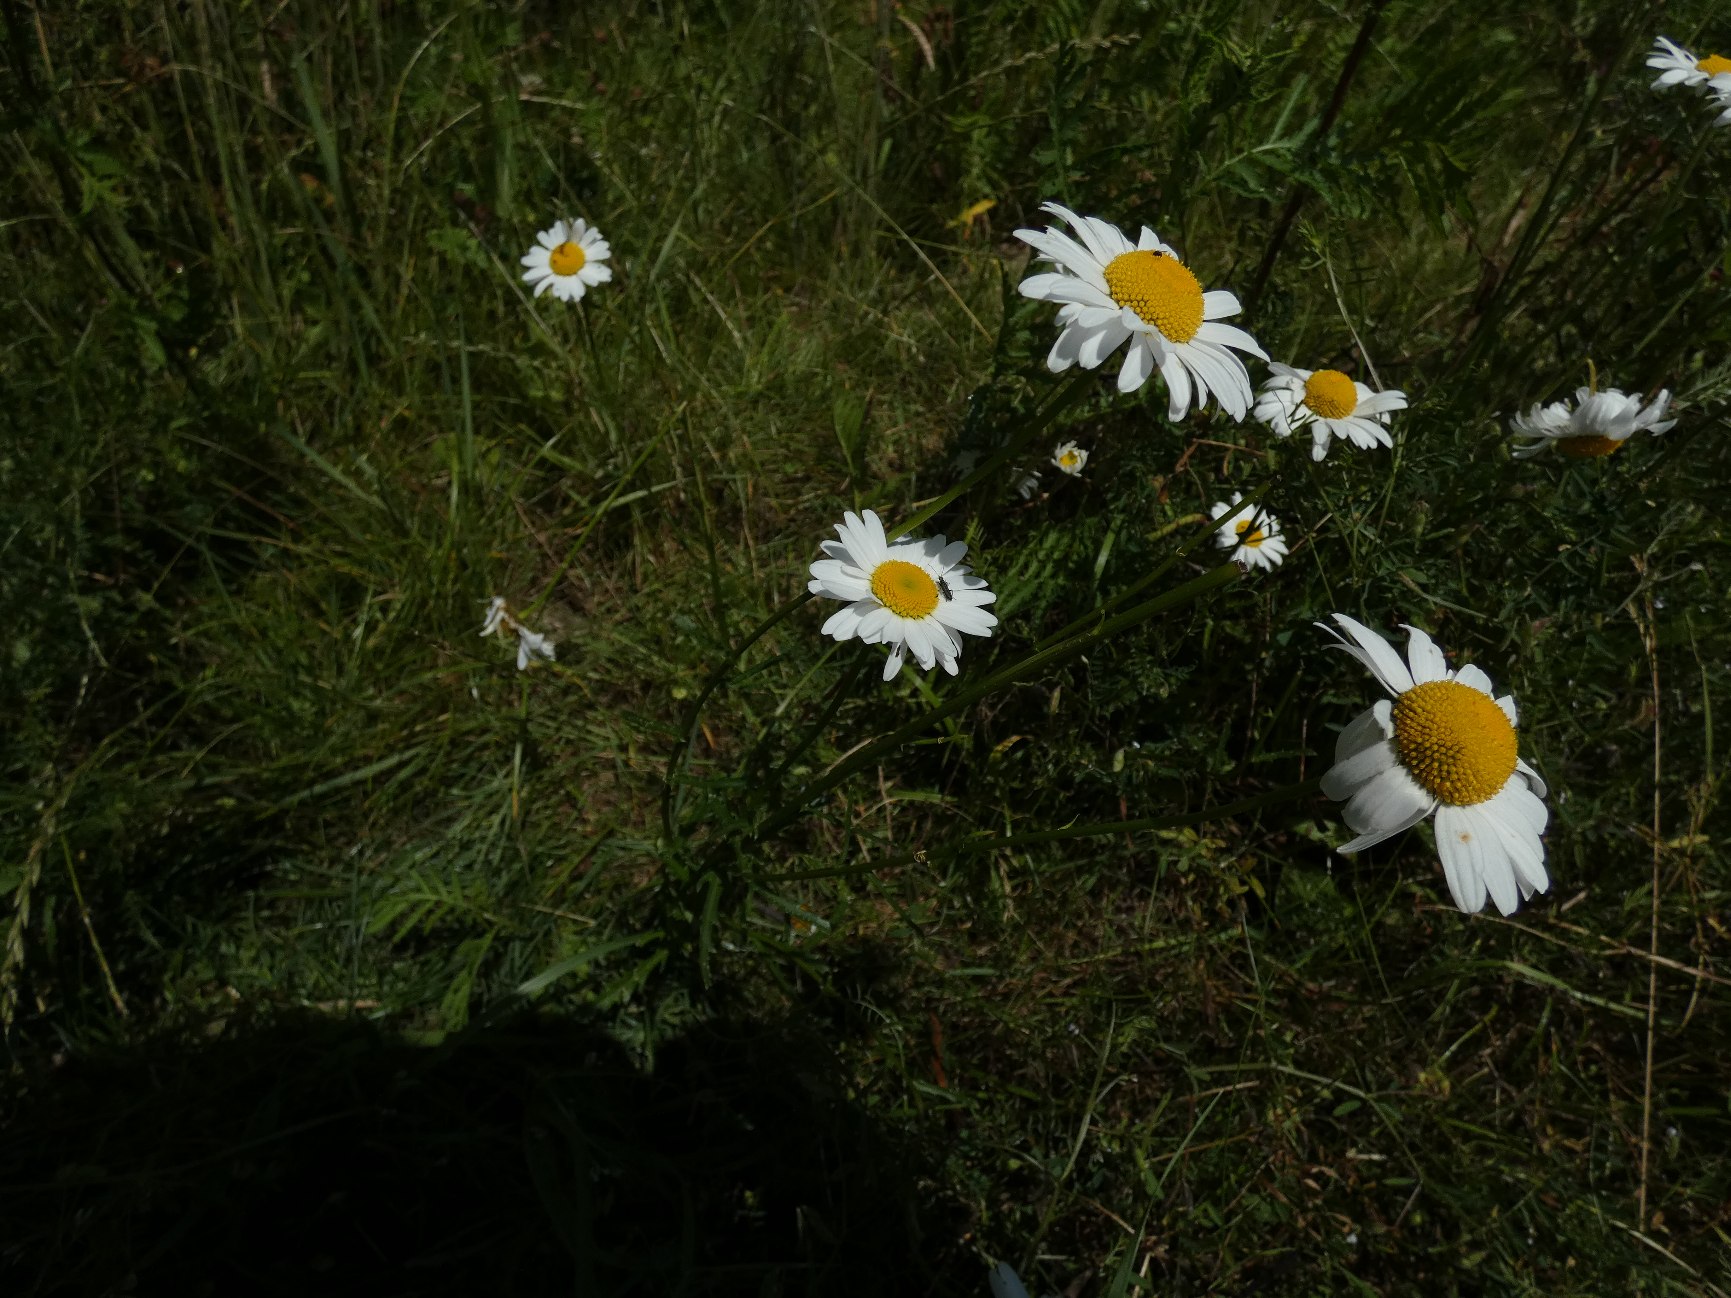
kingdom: Plantae
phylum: Tracheophyta
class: Magnoliopsida
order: Asterales
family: Asteraceae
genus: Leucanthemum
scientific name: Leucanthemum vulgare
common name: Hvid okseøje
